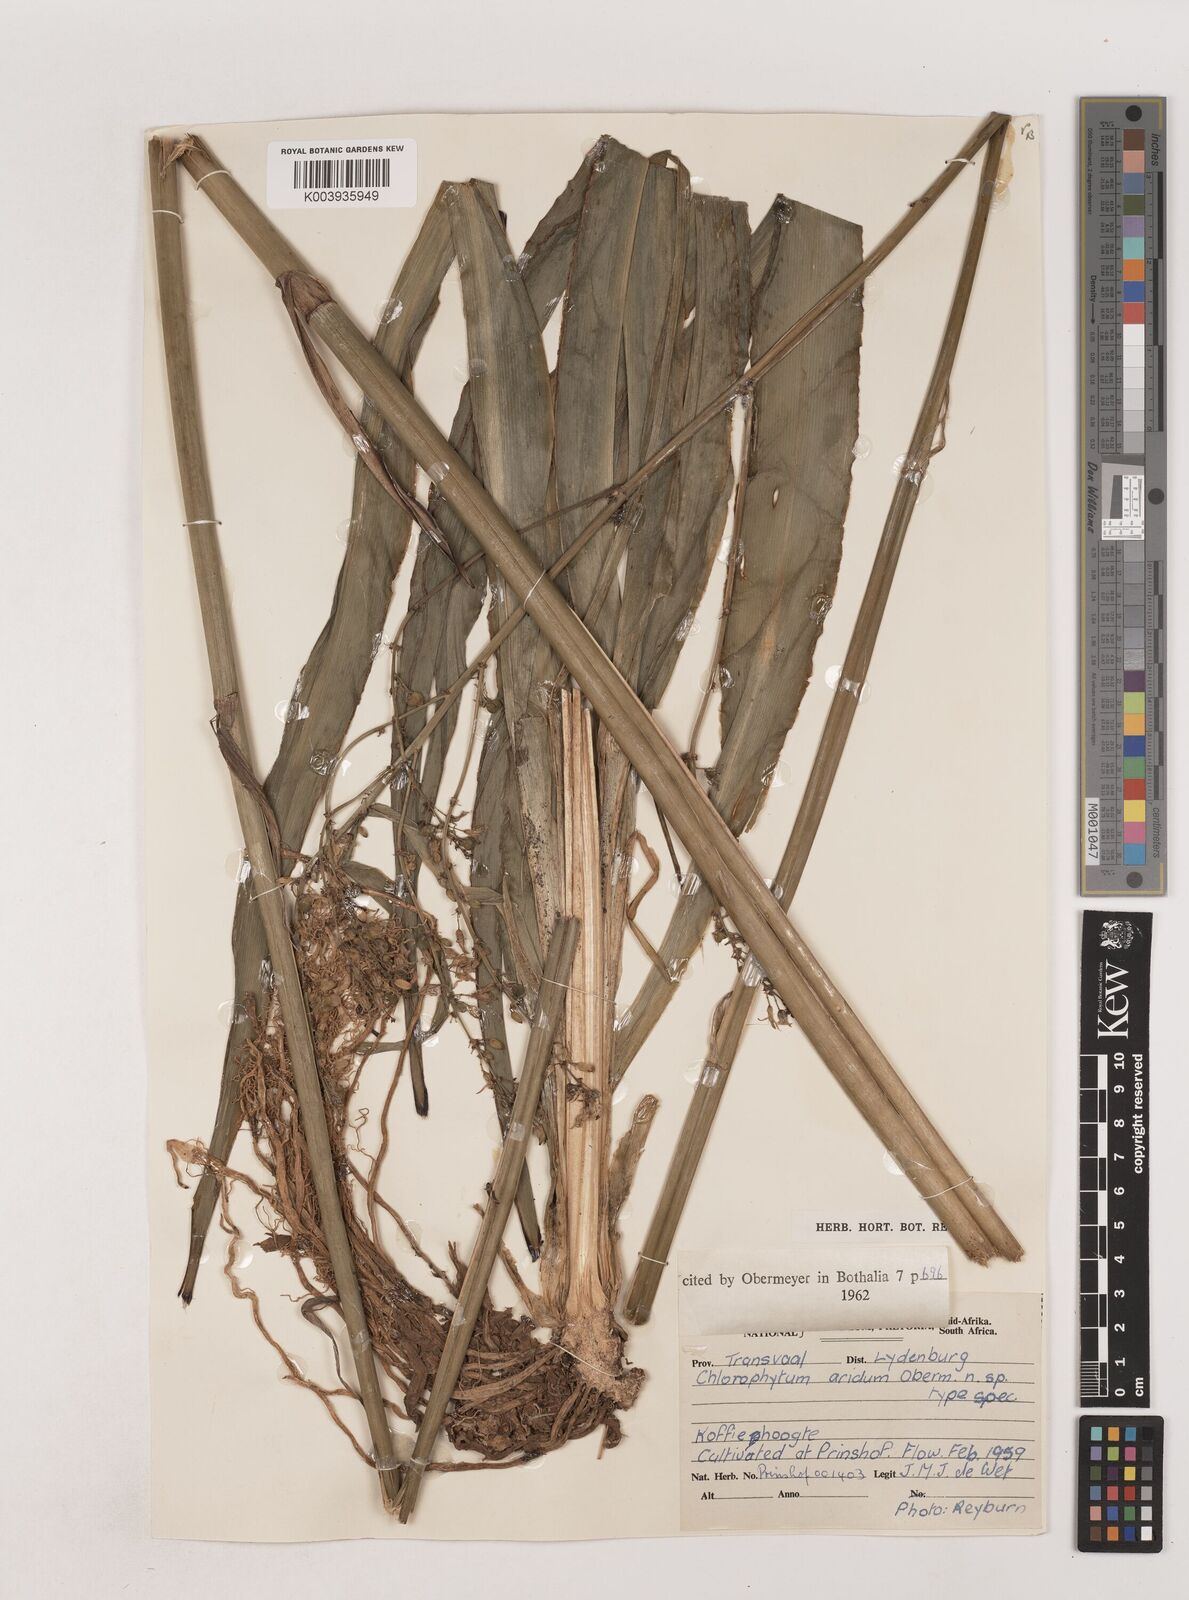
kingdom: Plantae
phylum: Tracheophyta
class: Liliopsida
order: Asparagales
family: Asparagaceae
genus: Chlorophytum
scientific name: Chlorophytum aridum
